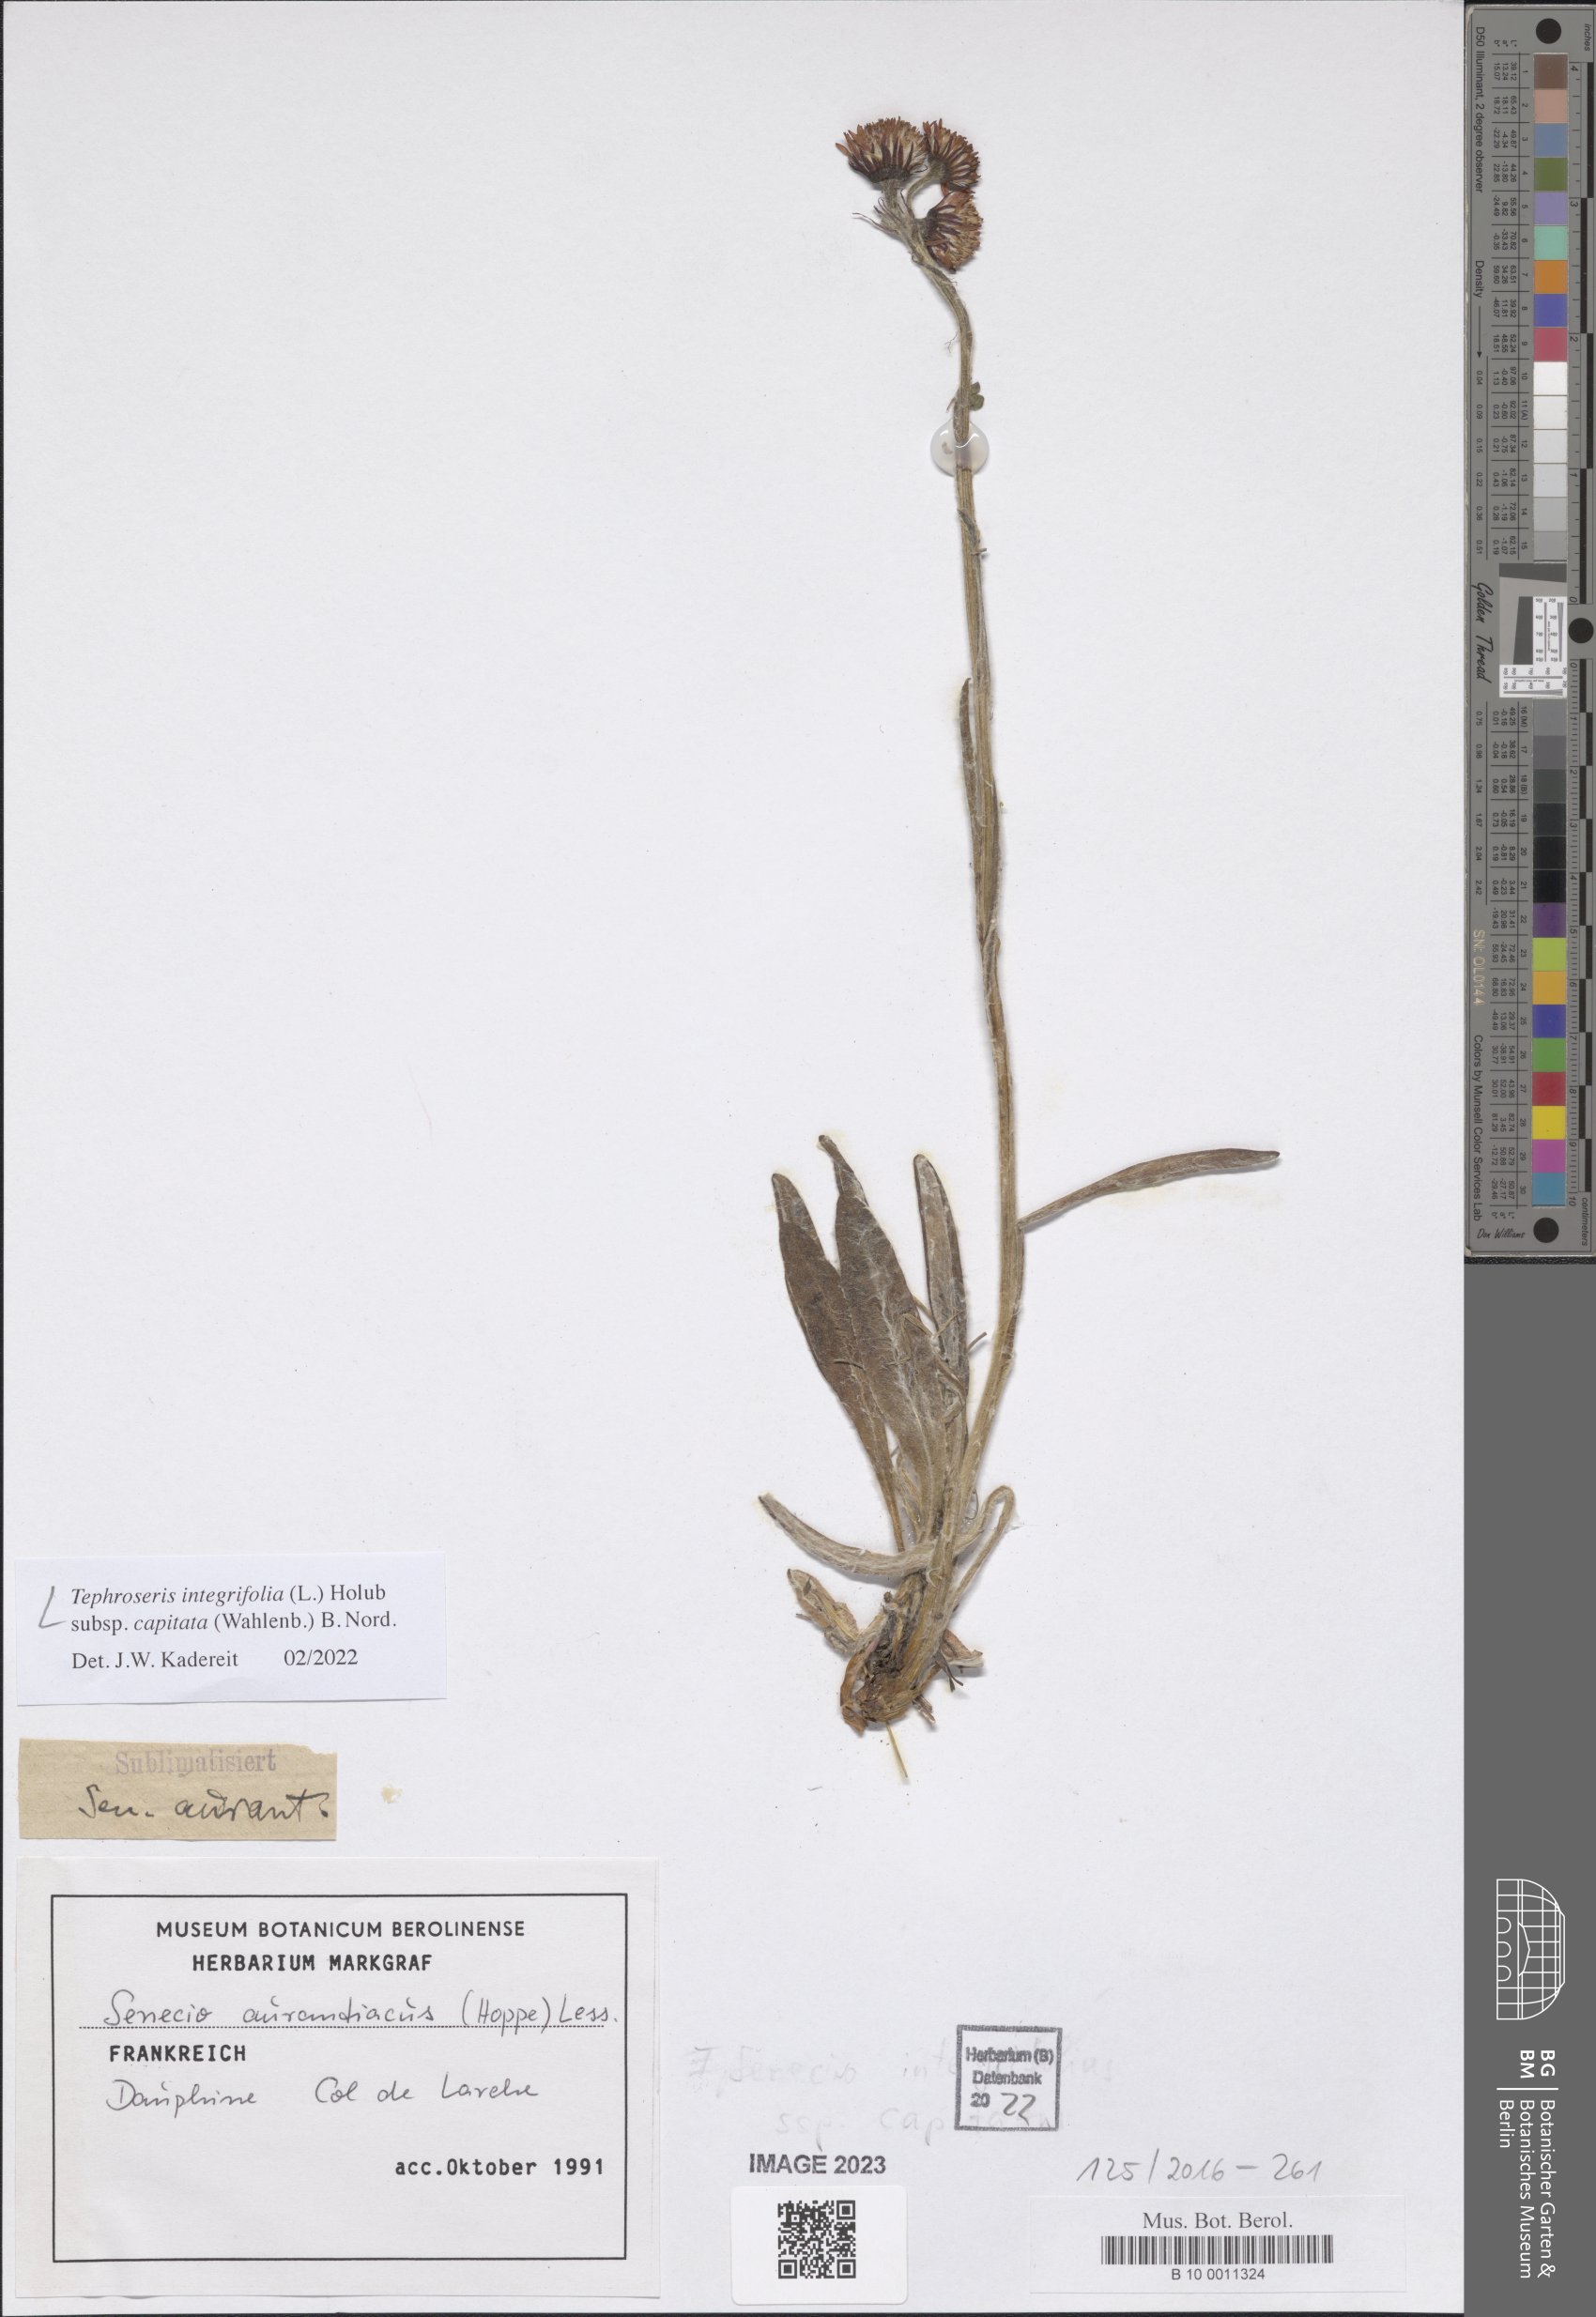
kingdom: Plantae
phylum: Tracheophyta
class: Magnoliopsida
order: Asterales
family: Asteraceae
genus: Tephroseris
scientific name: Tephroseris integrifolia
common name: Field fleawort
